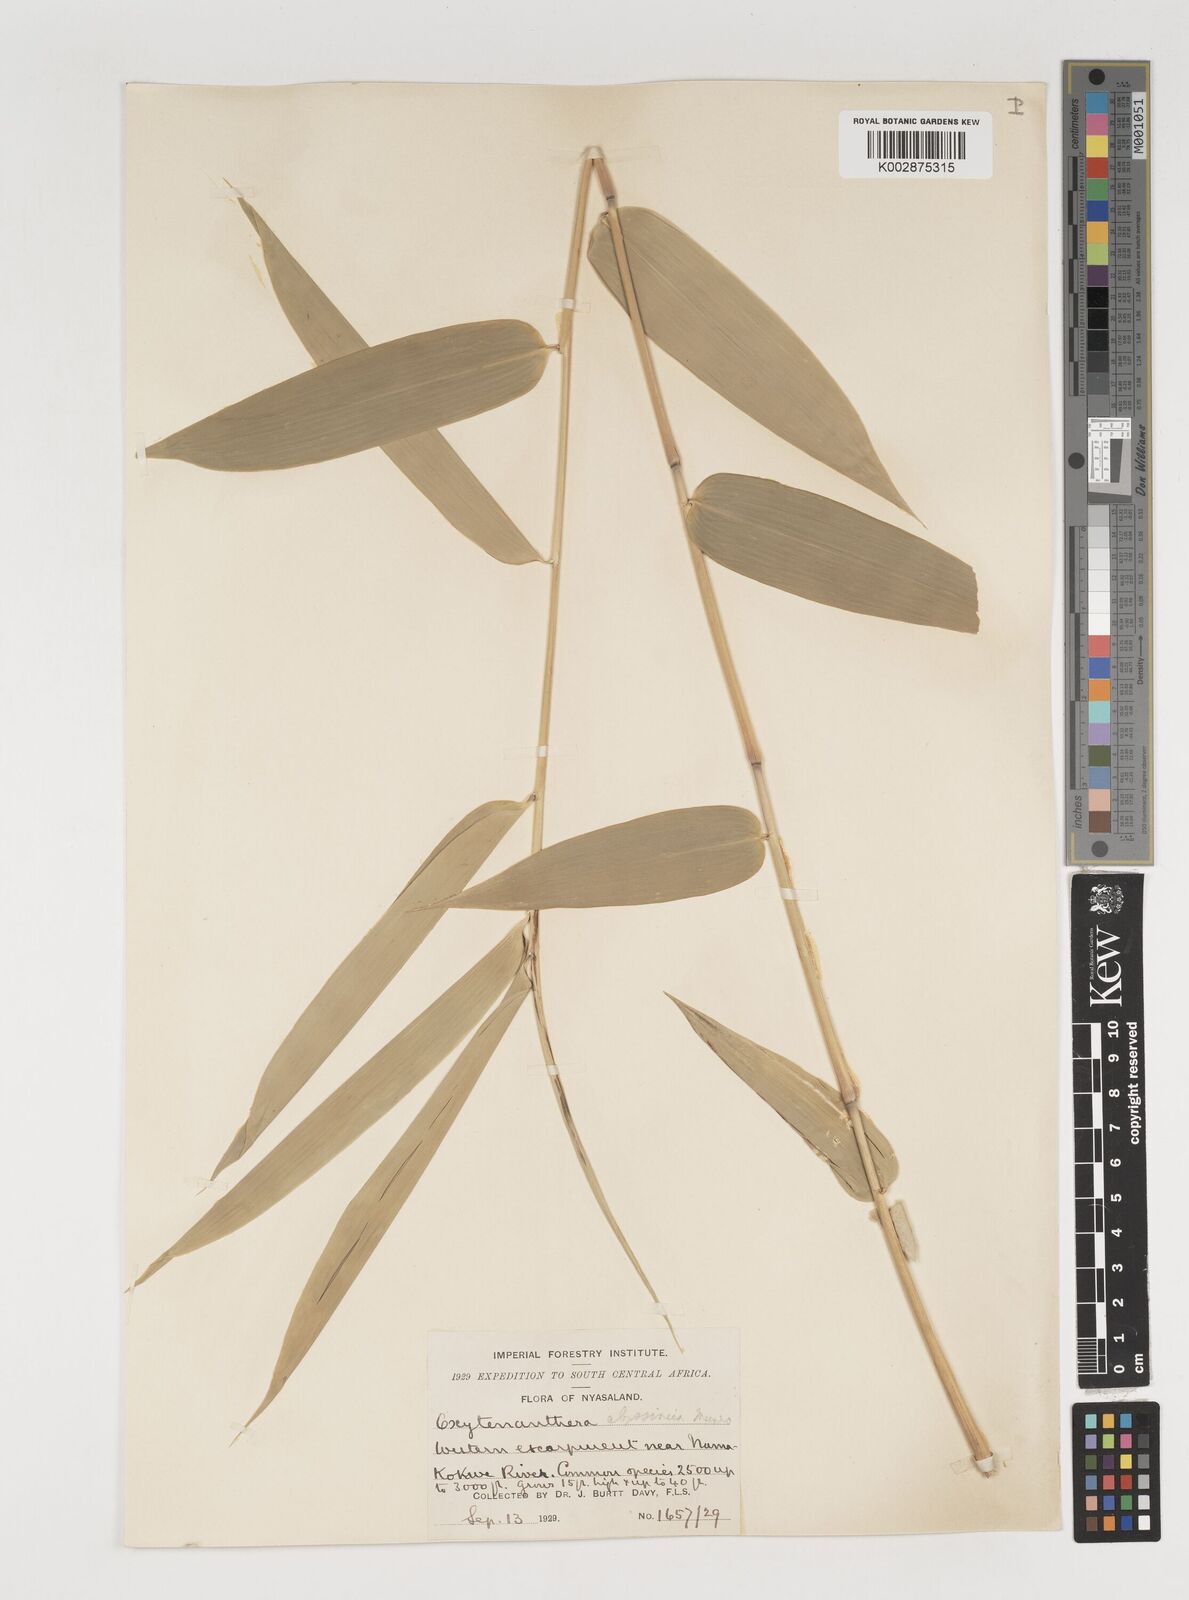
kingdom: Plantae
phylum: Tracheophyta
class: Liliopsida
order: Poales
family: Poaceae
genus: Oxytenanthera
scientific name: Oxytenanthera abyssinica
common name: Wine bamboo
